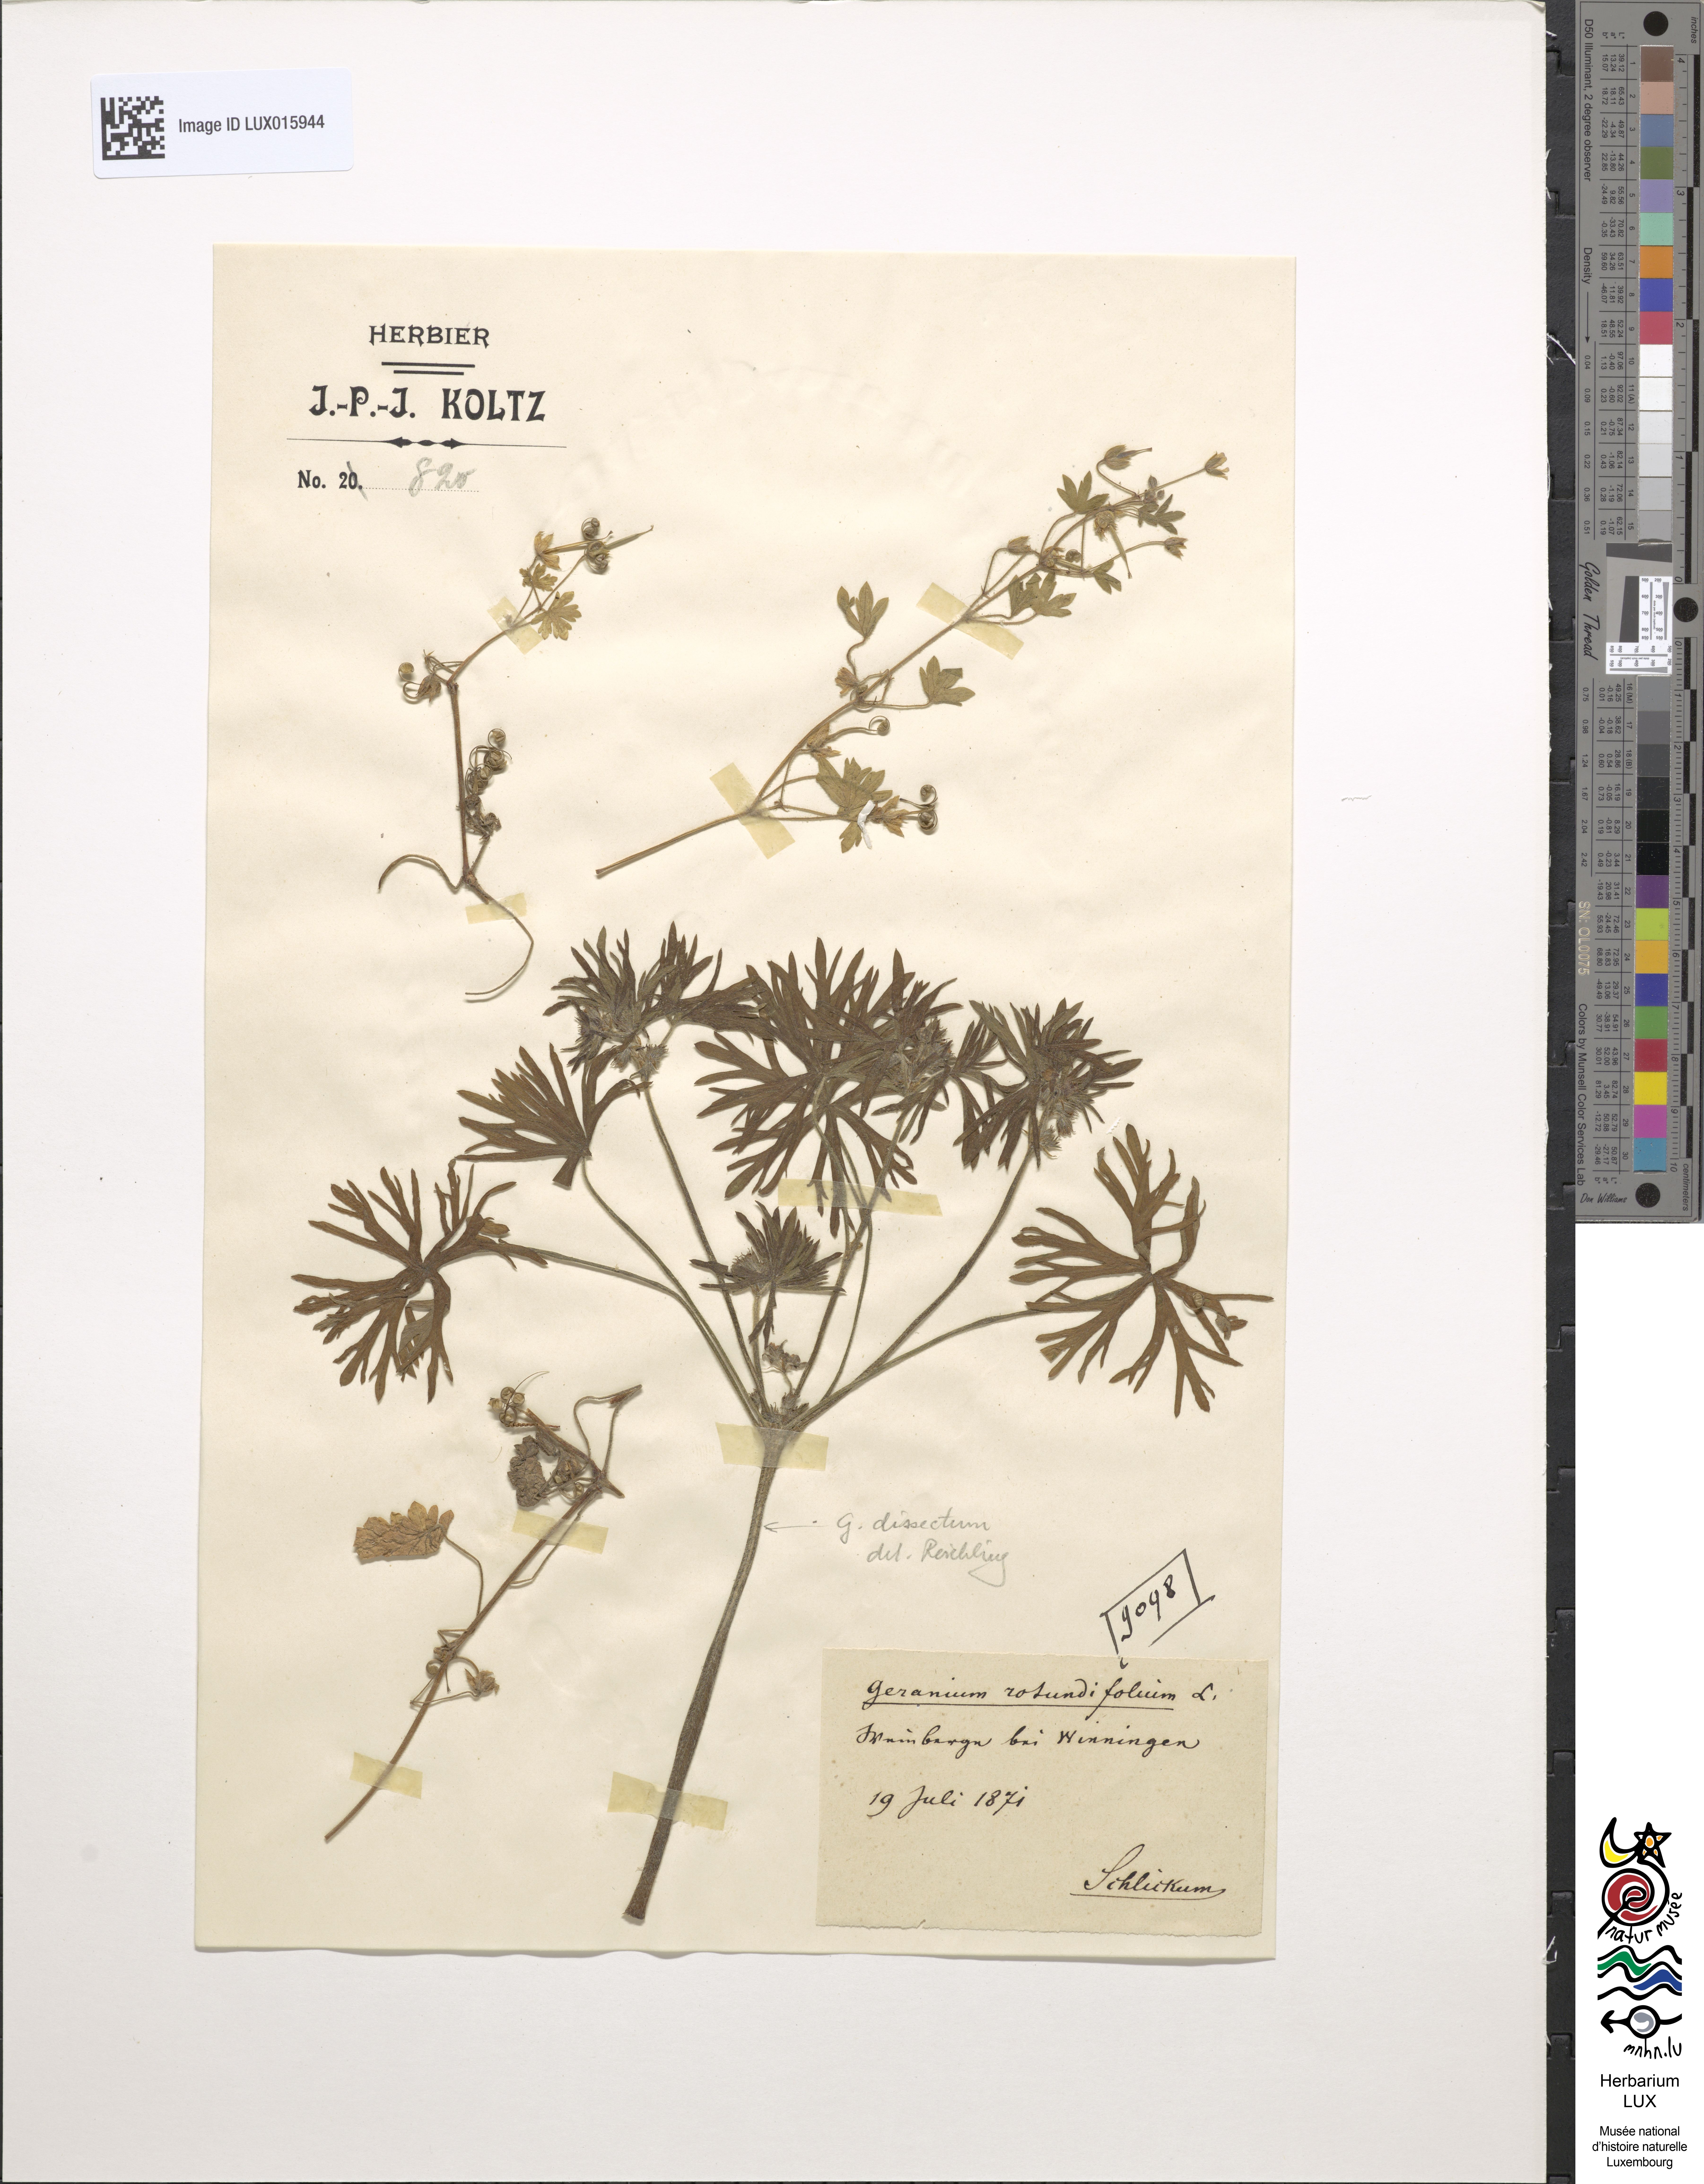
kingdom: Plantae
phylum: Tracheophyta
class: Magnoliopsida
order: Geraniales
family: Geraniaceae
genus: Geranium
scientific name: Geranium rotundifolium
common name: Round-leaved crane's-bill
